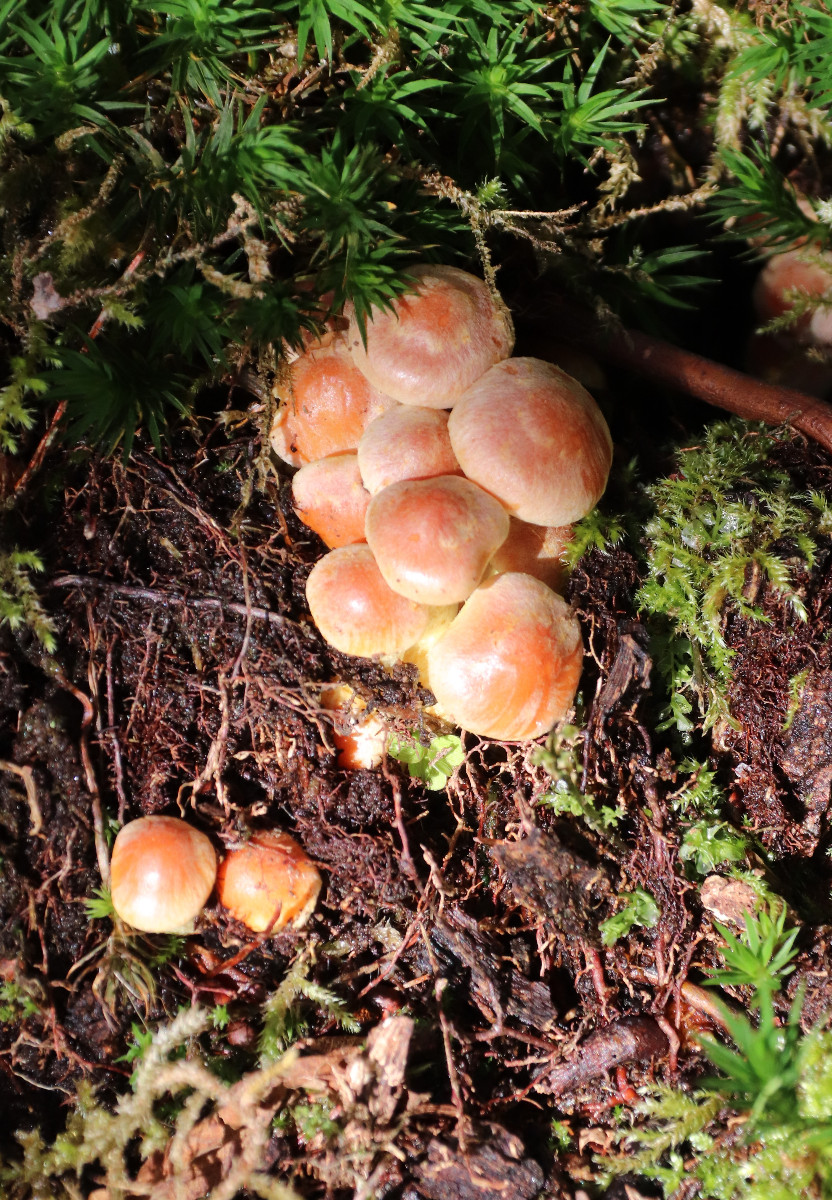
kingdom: Fungi
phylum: Basidiomycota
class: Agaricomycetes
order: Agaricales
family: Strophariaceae
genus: Hypholoma
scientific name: Hypholoma
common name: svovlhat
